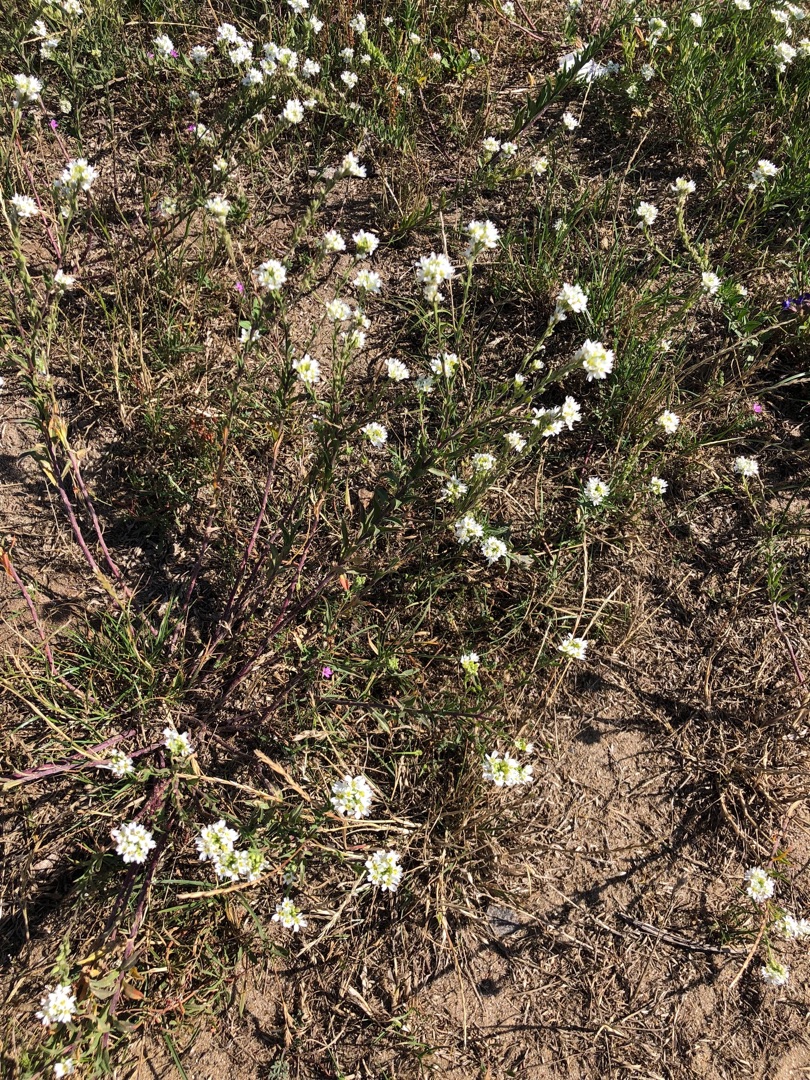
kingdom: Plantae
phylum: Tracheophyta
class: Magnoliopsida
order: Brassicales
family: Brassicaceae
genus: Berteroa
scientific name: Berteroa incana
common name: Kløvplade
